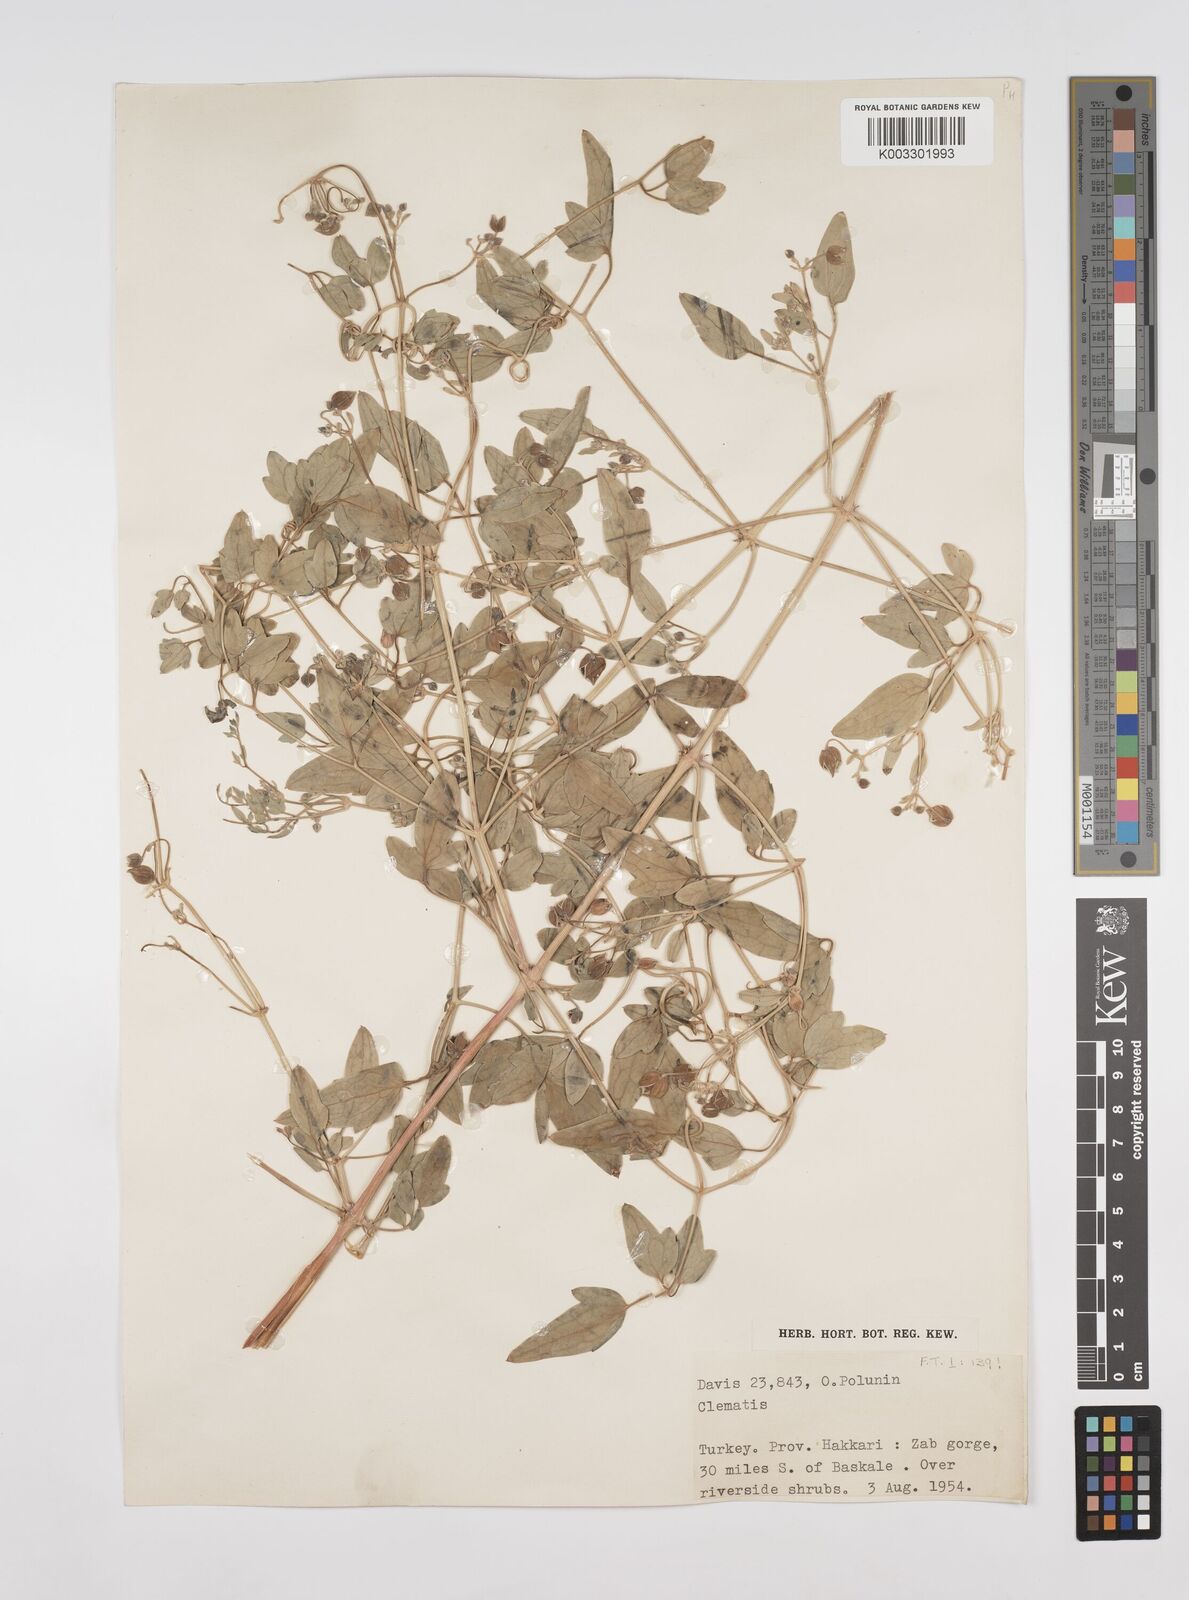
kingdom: Plantae
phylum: Tracheophyta
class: Magnoliopsida
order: Ranunculales
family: Ranunculaceae
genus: Clematis
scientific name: Clematis orientalis
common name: Oriental virgin's-bower
